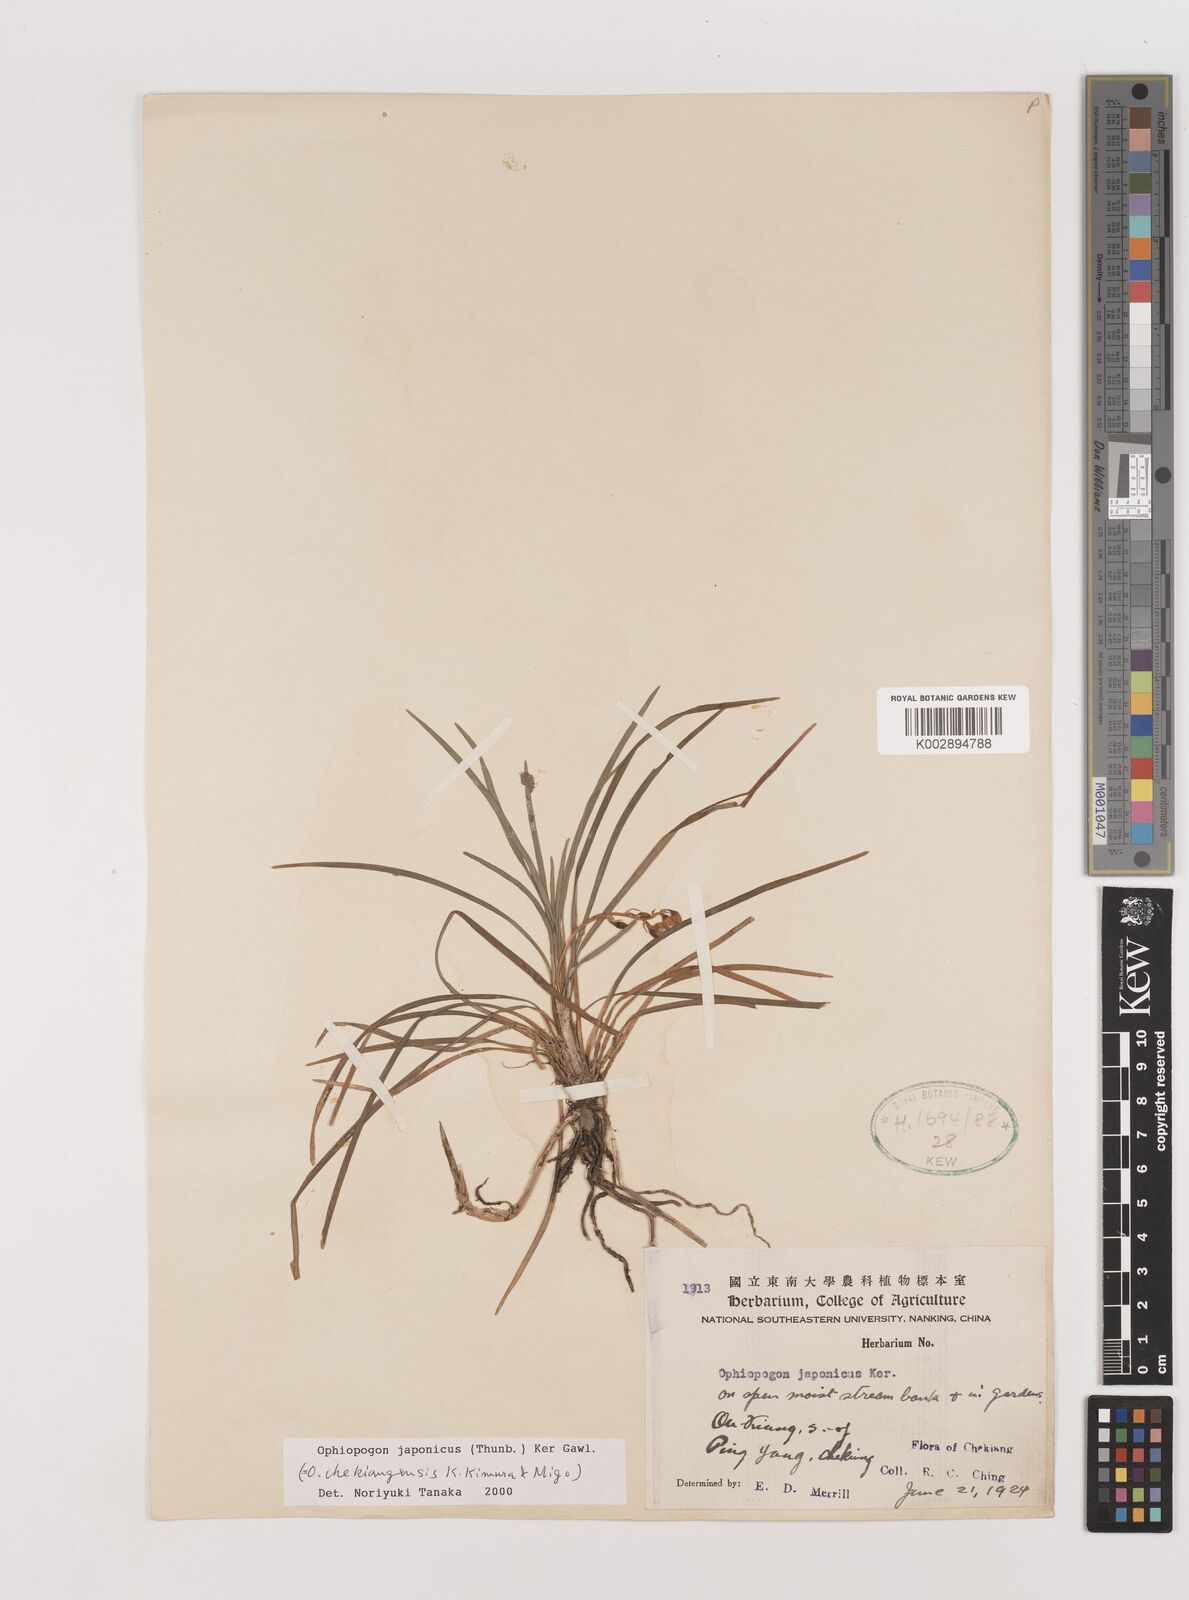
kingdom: Plantae
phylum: Tracheophyta
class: Liliopsida
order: Asparagales
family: Asparagaceae
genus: Ophiopogon
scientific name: Ophiopogon japonicus
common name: Dwarf lilyturf
